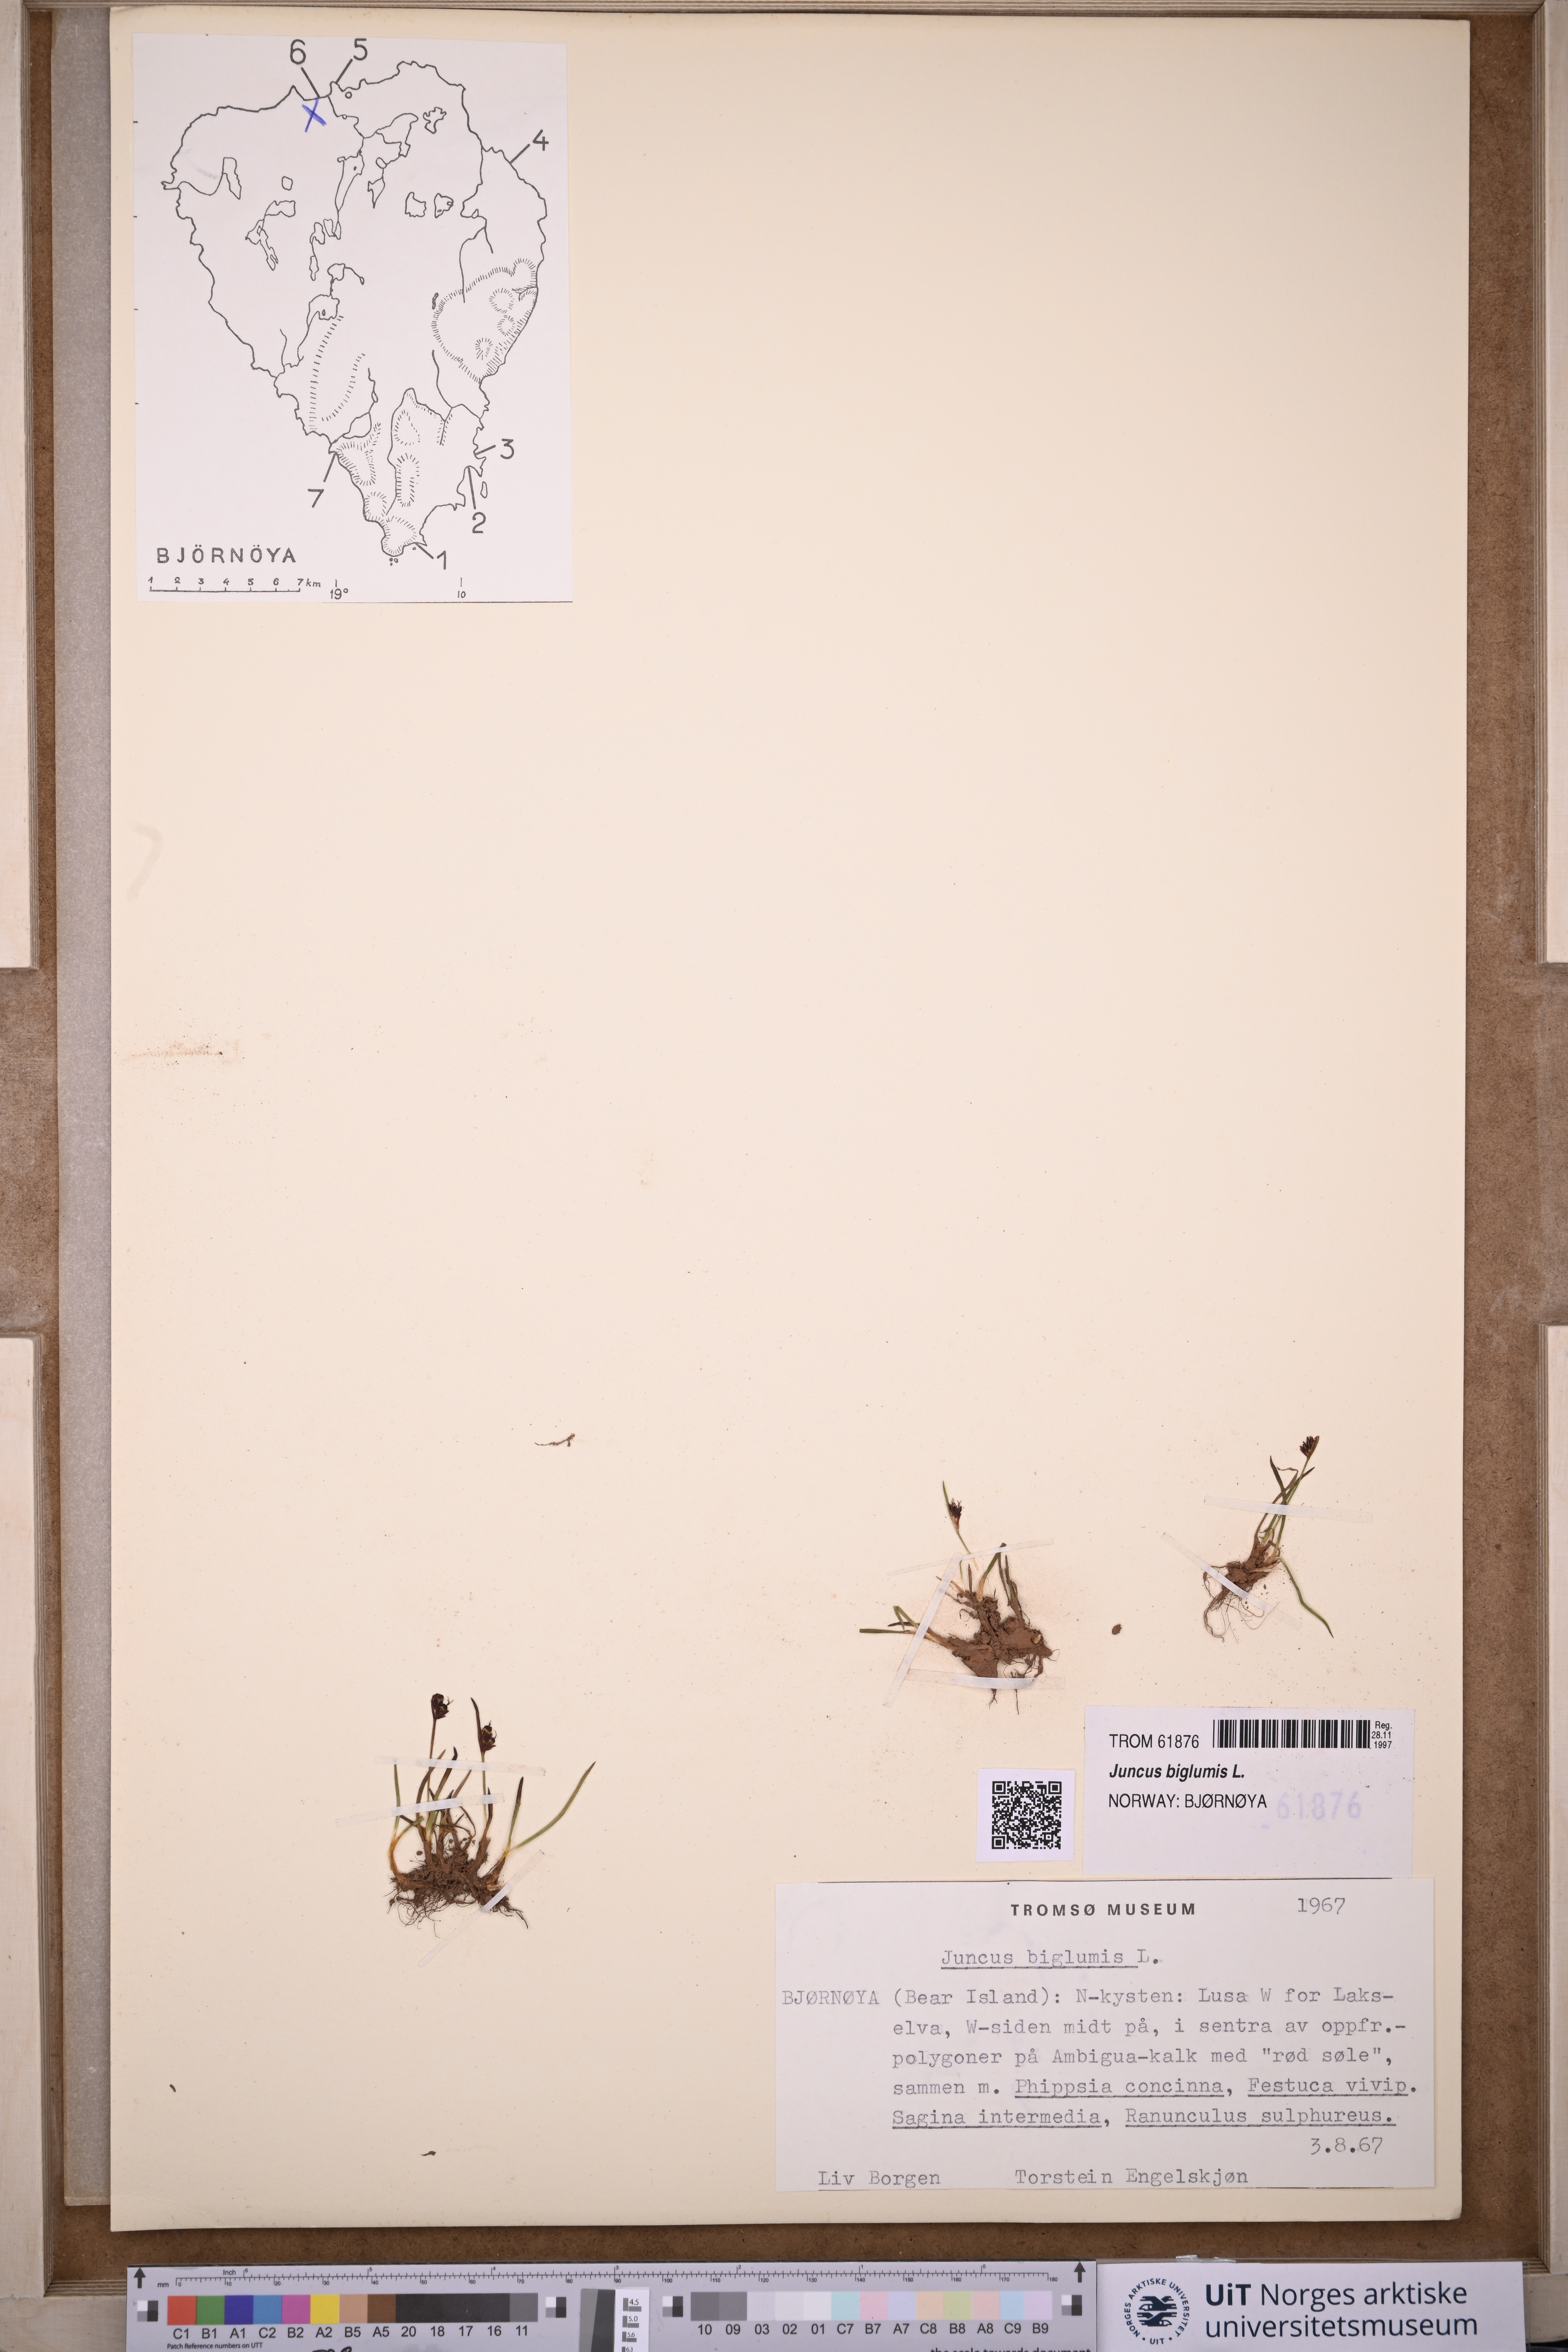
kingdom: Plantae
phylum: Tracheophyta
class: Liliopsida
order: Poales
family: Juncaceae
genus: Juncus
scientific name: Juncus biglumis
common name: Two-flowered rush
